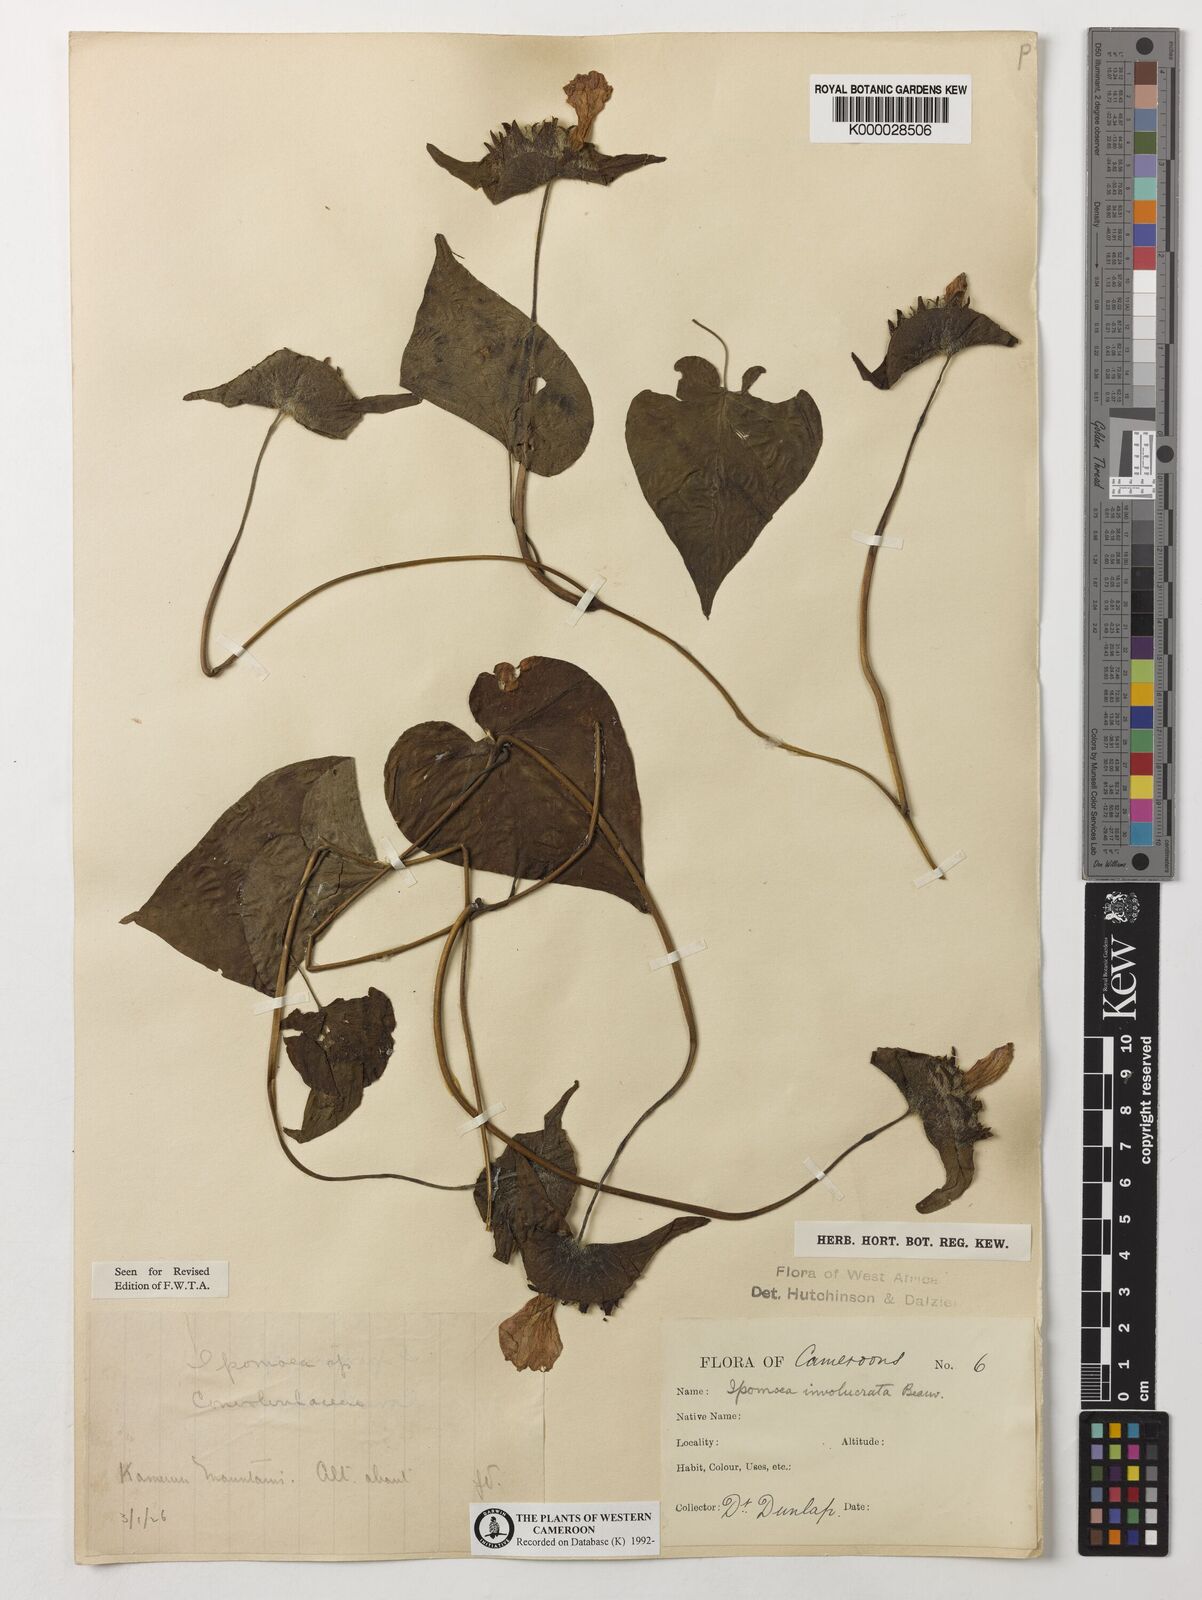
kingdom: Plantae
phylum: Tracheophyta
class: Magnoliopsida
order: Solanales
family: Convolvulaceae
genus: Ipomoea
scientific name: Ipomoea involucrata
